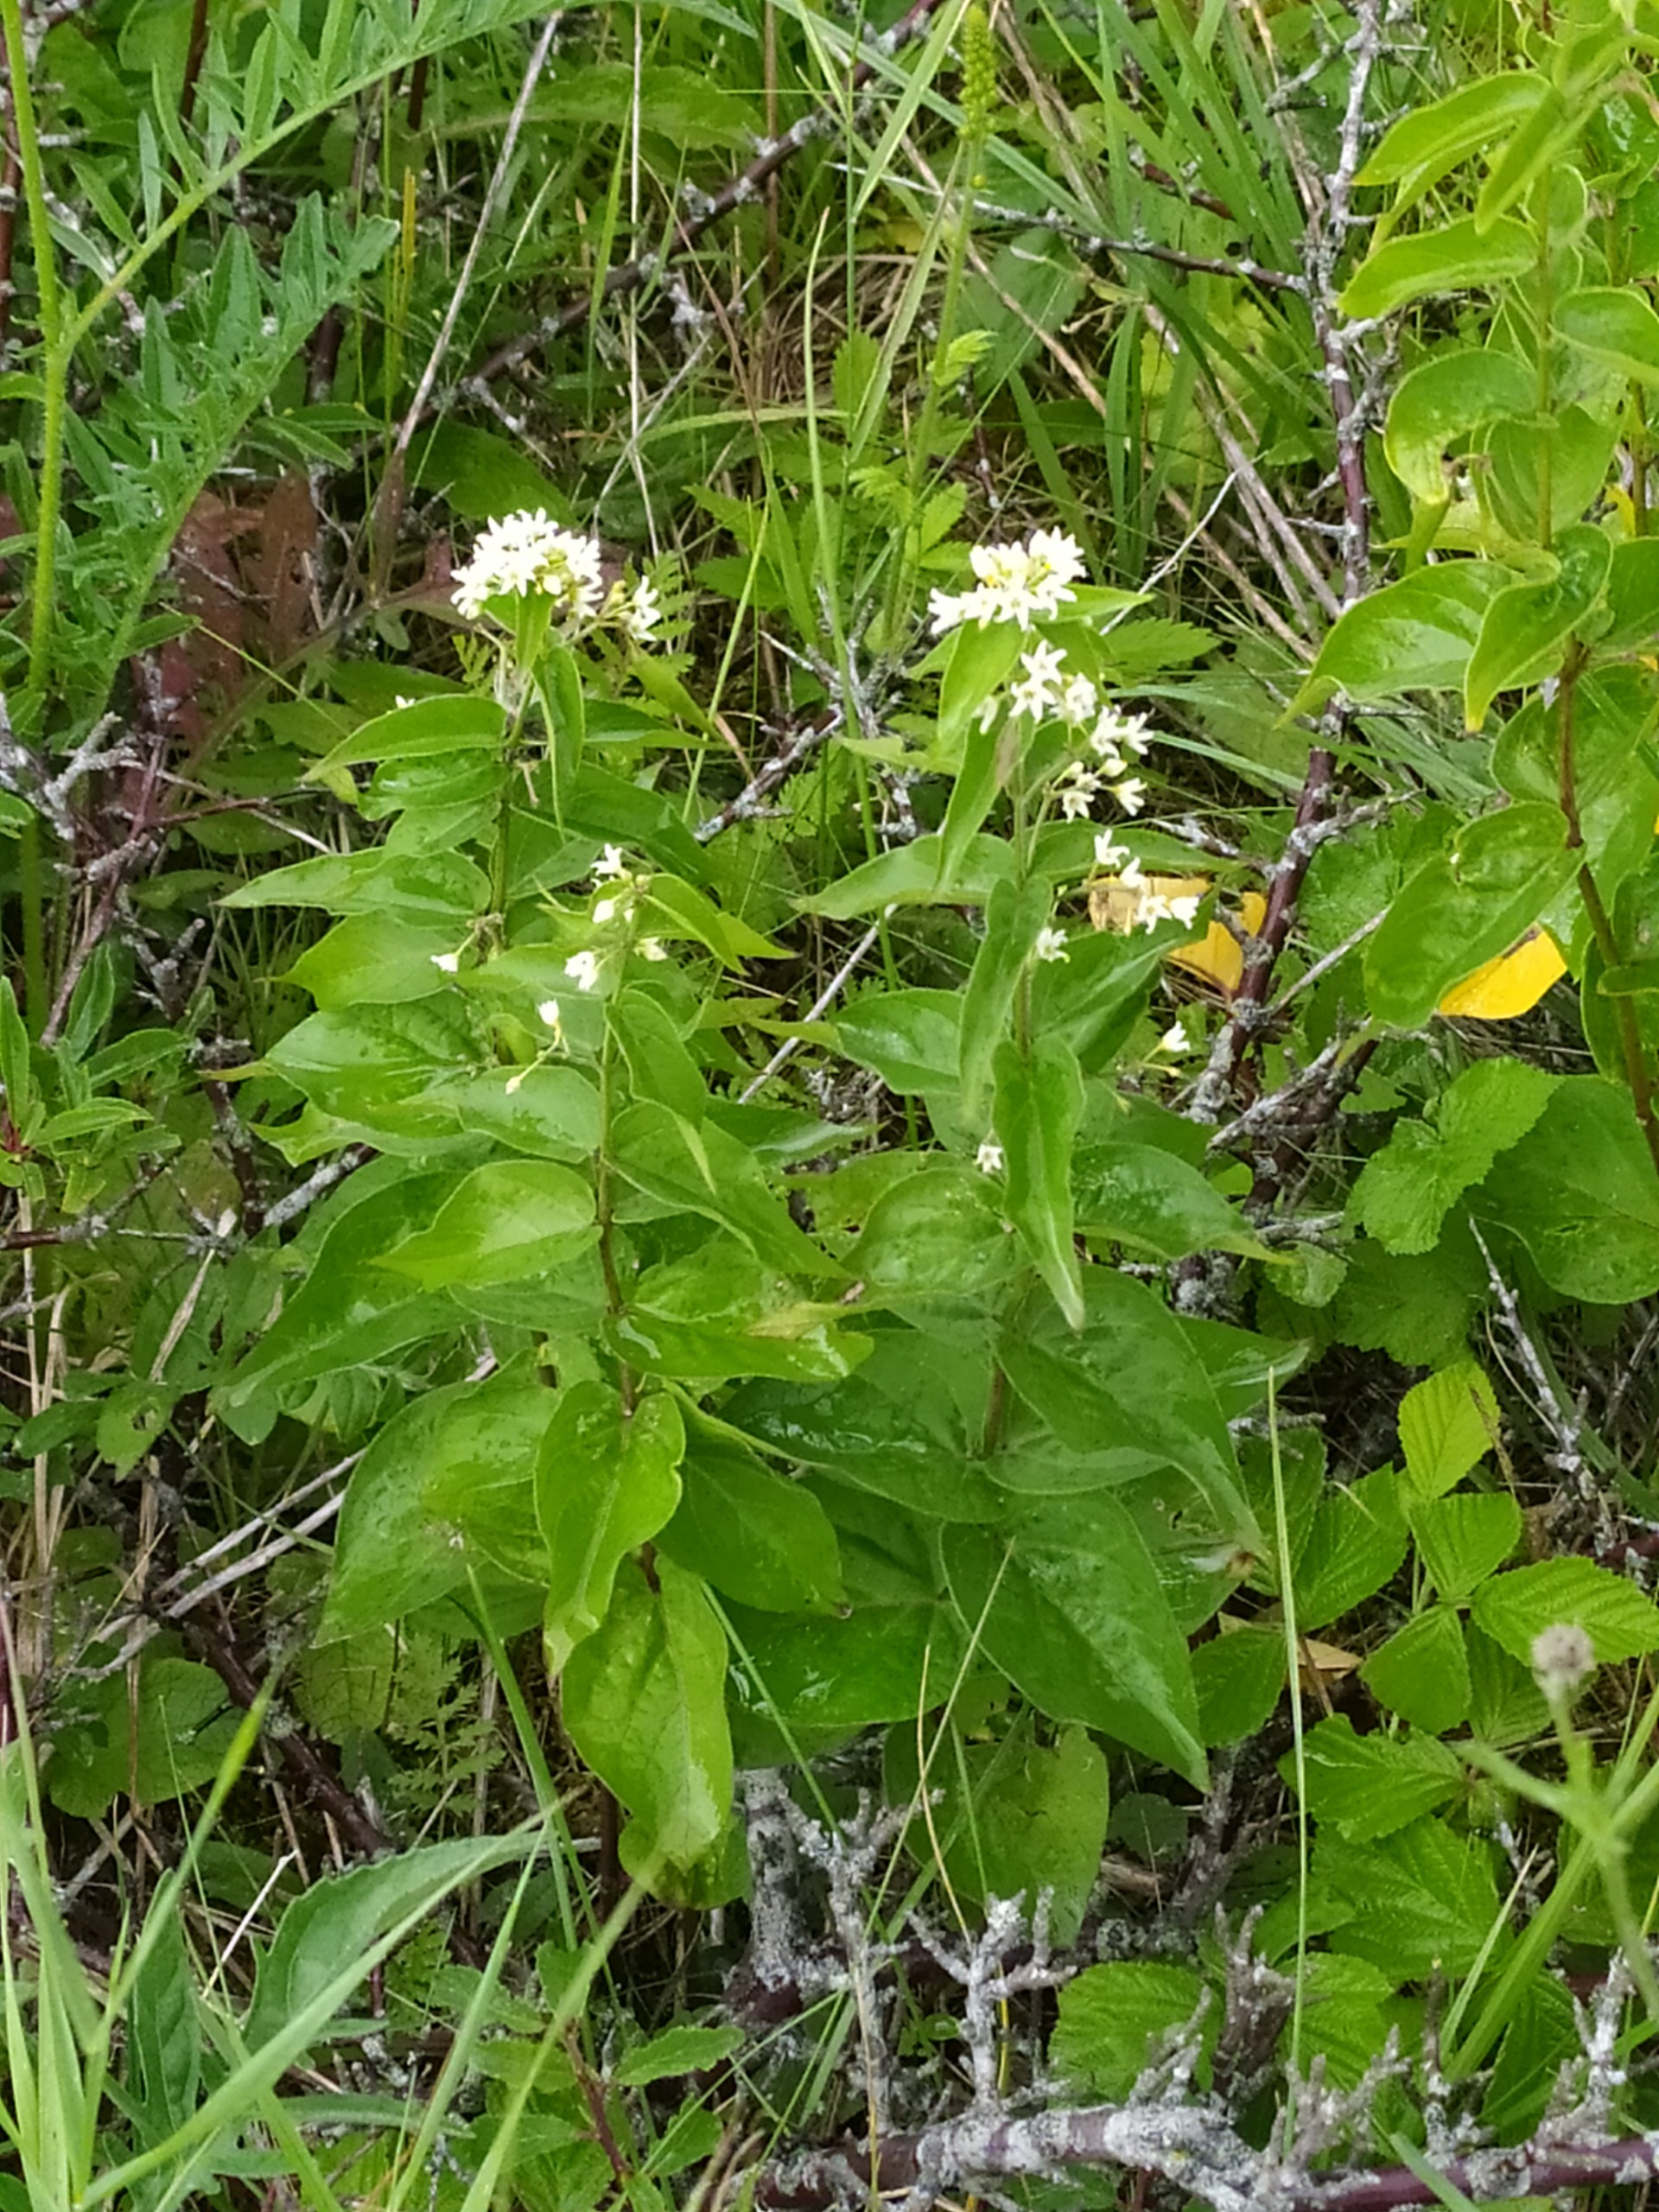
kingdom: Plantae
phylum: Tracheophyta
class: Magnoliopsida
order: Gentianales
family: Apocynaceae
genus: Vincetoxicum
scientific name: Vincetoxicum hirundinaria
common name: Svalerod
